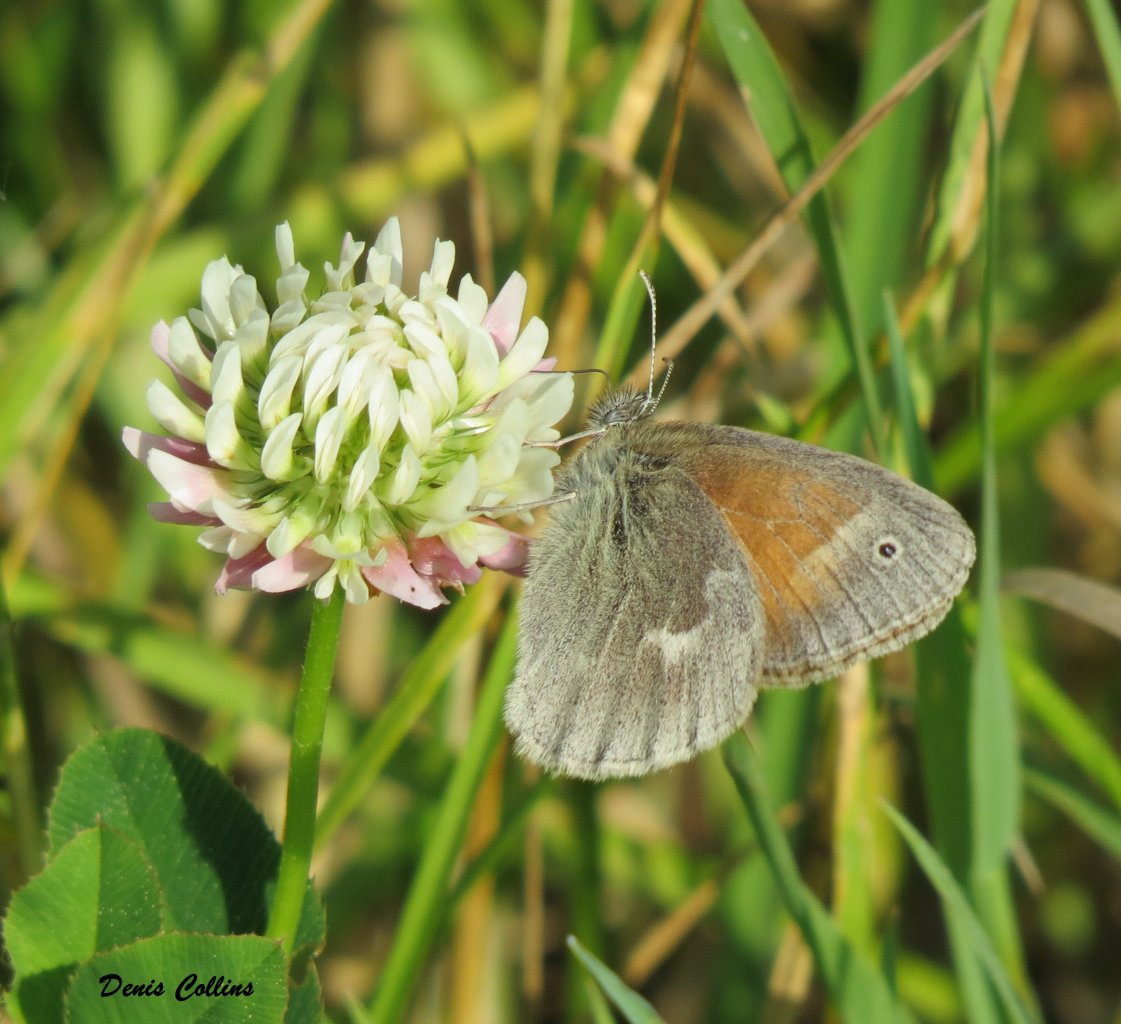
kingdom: Animalia
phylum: Arthropoda
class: Insecta
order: Lepidoptera
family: Nymphalidae
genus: Coenonympha
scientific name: Coenonympha tullia
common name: Large Heath
